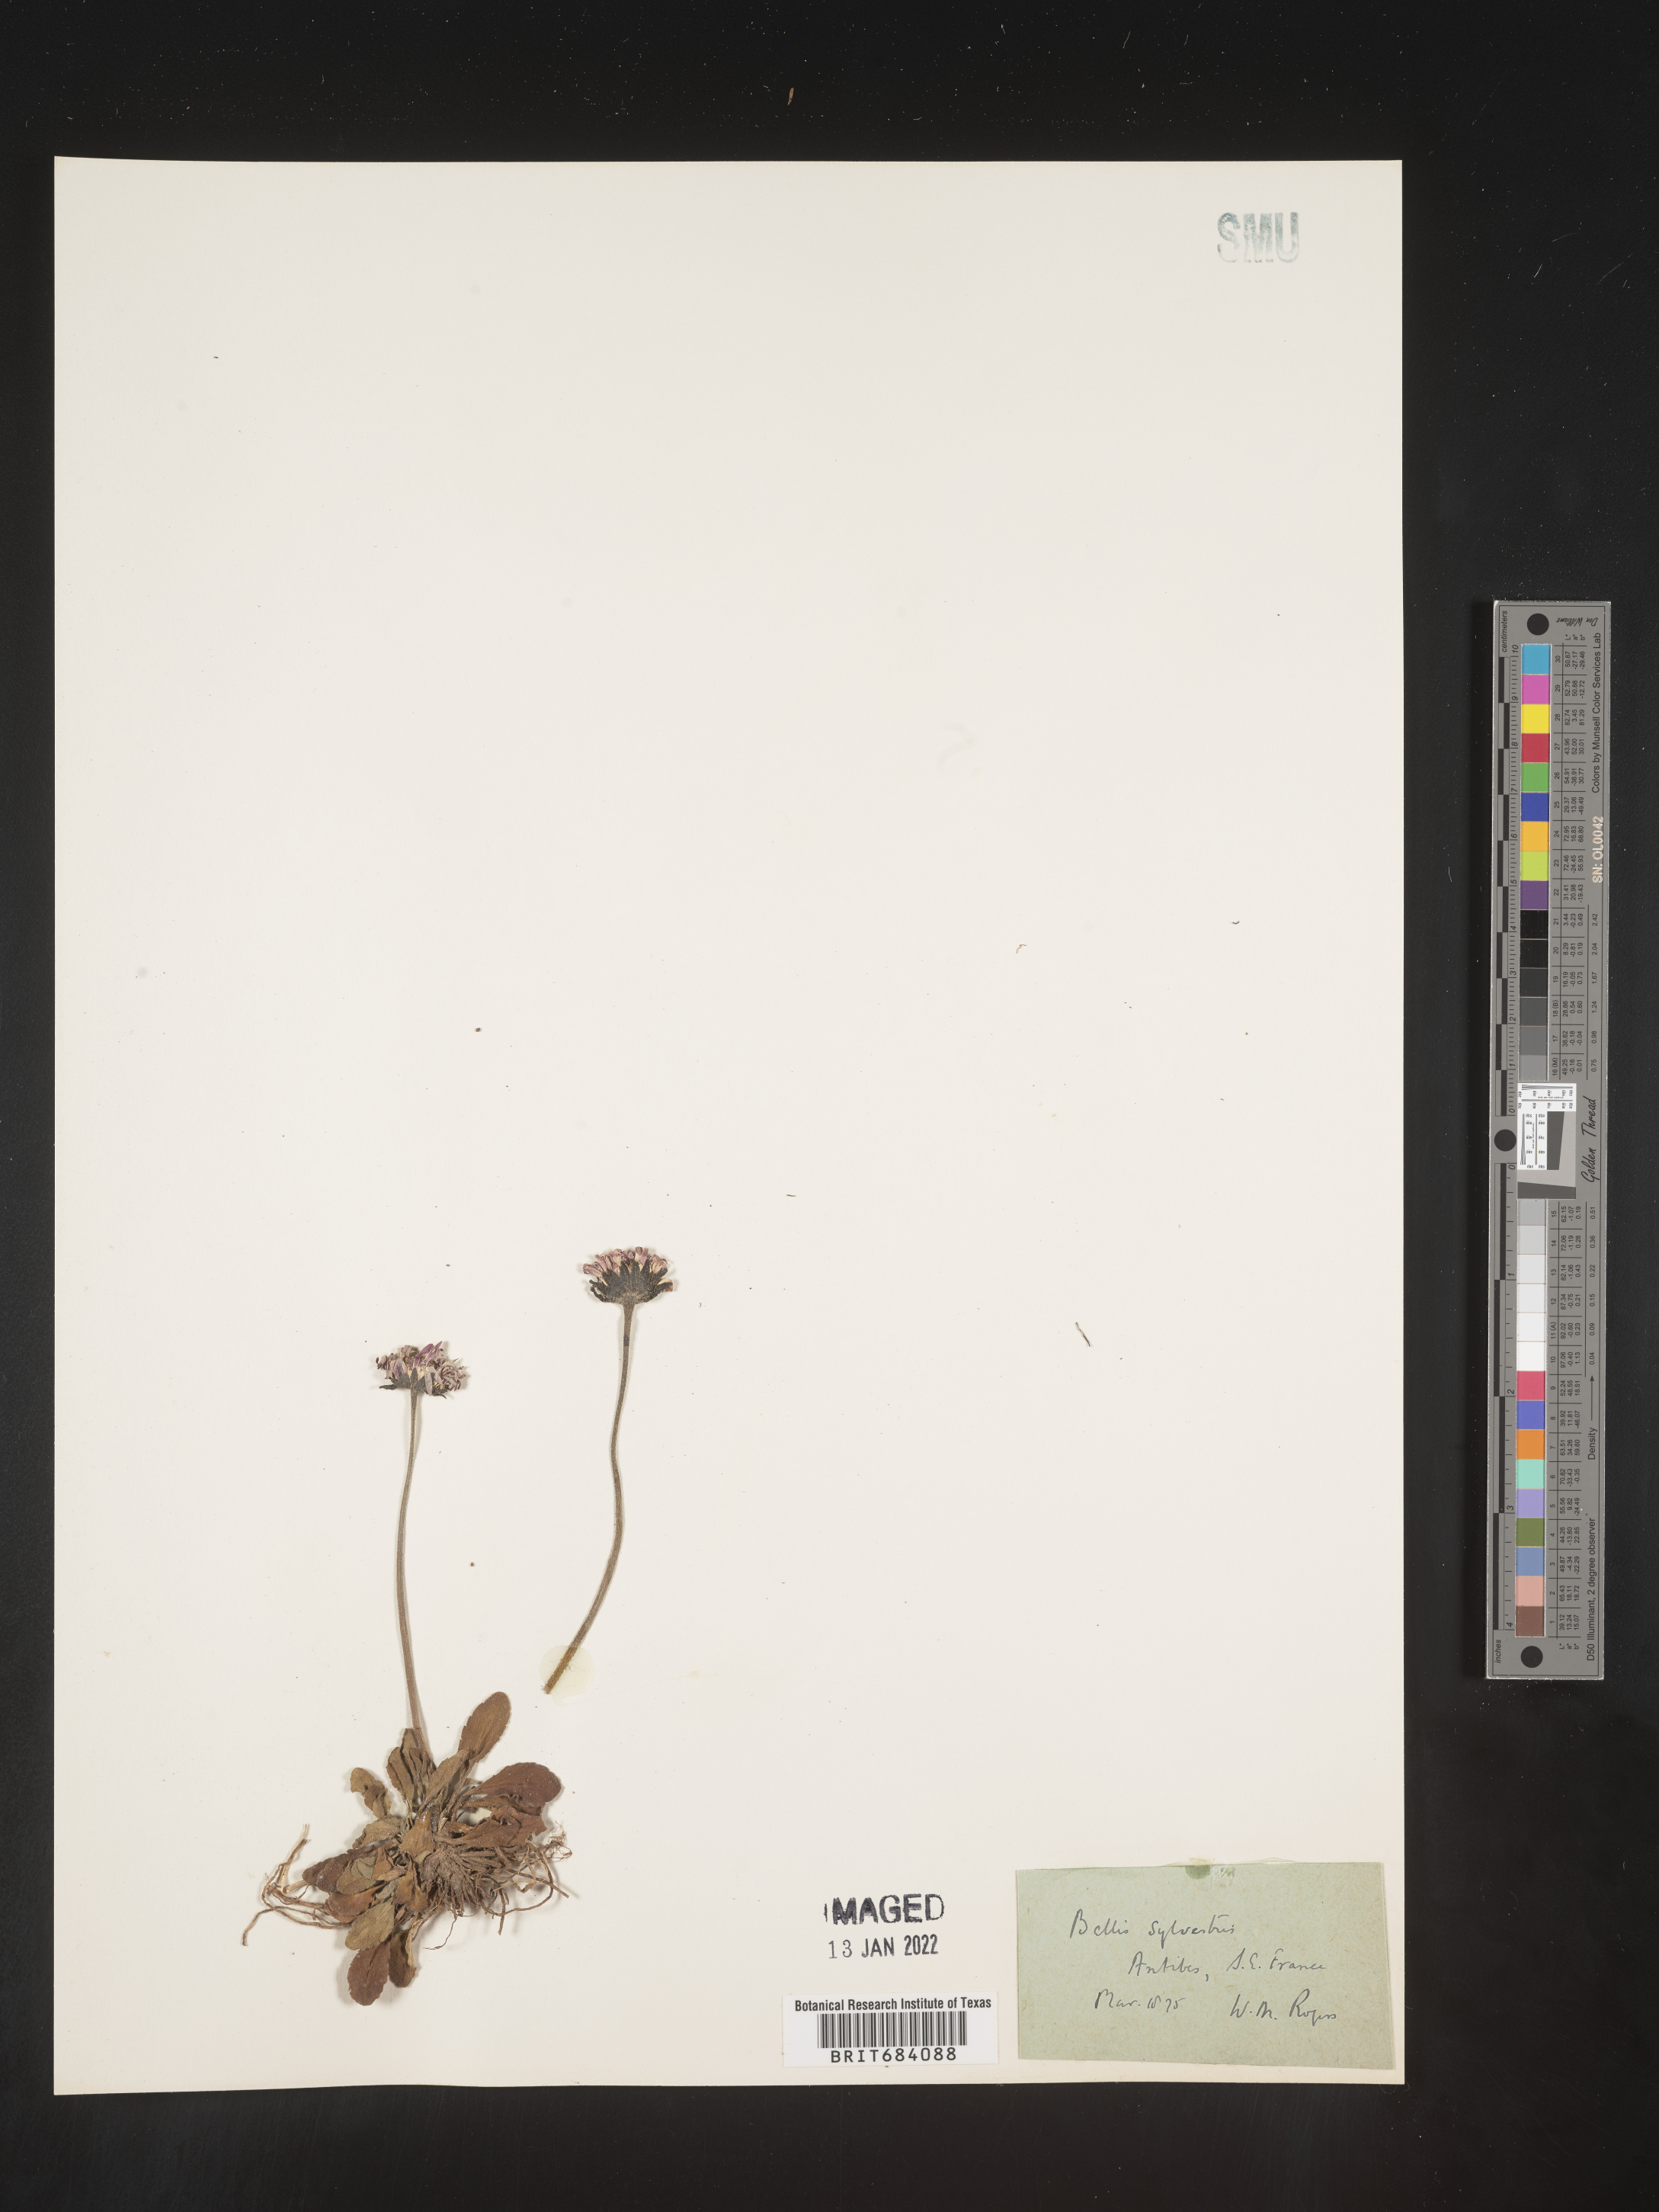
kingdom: Plantae
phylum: Tracheophyta
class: Magnoliopsida
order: Asterales
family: Asteraceae
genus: Bellis
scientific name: Bellis
